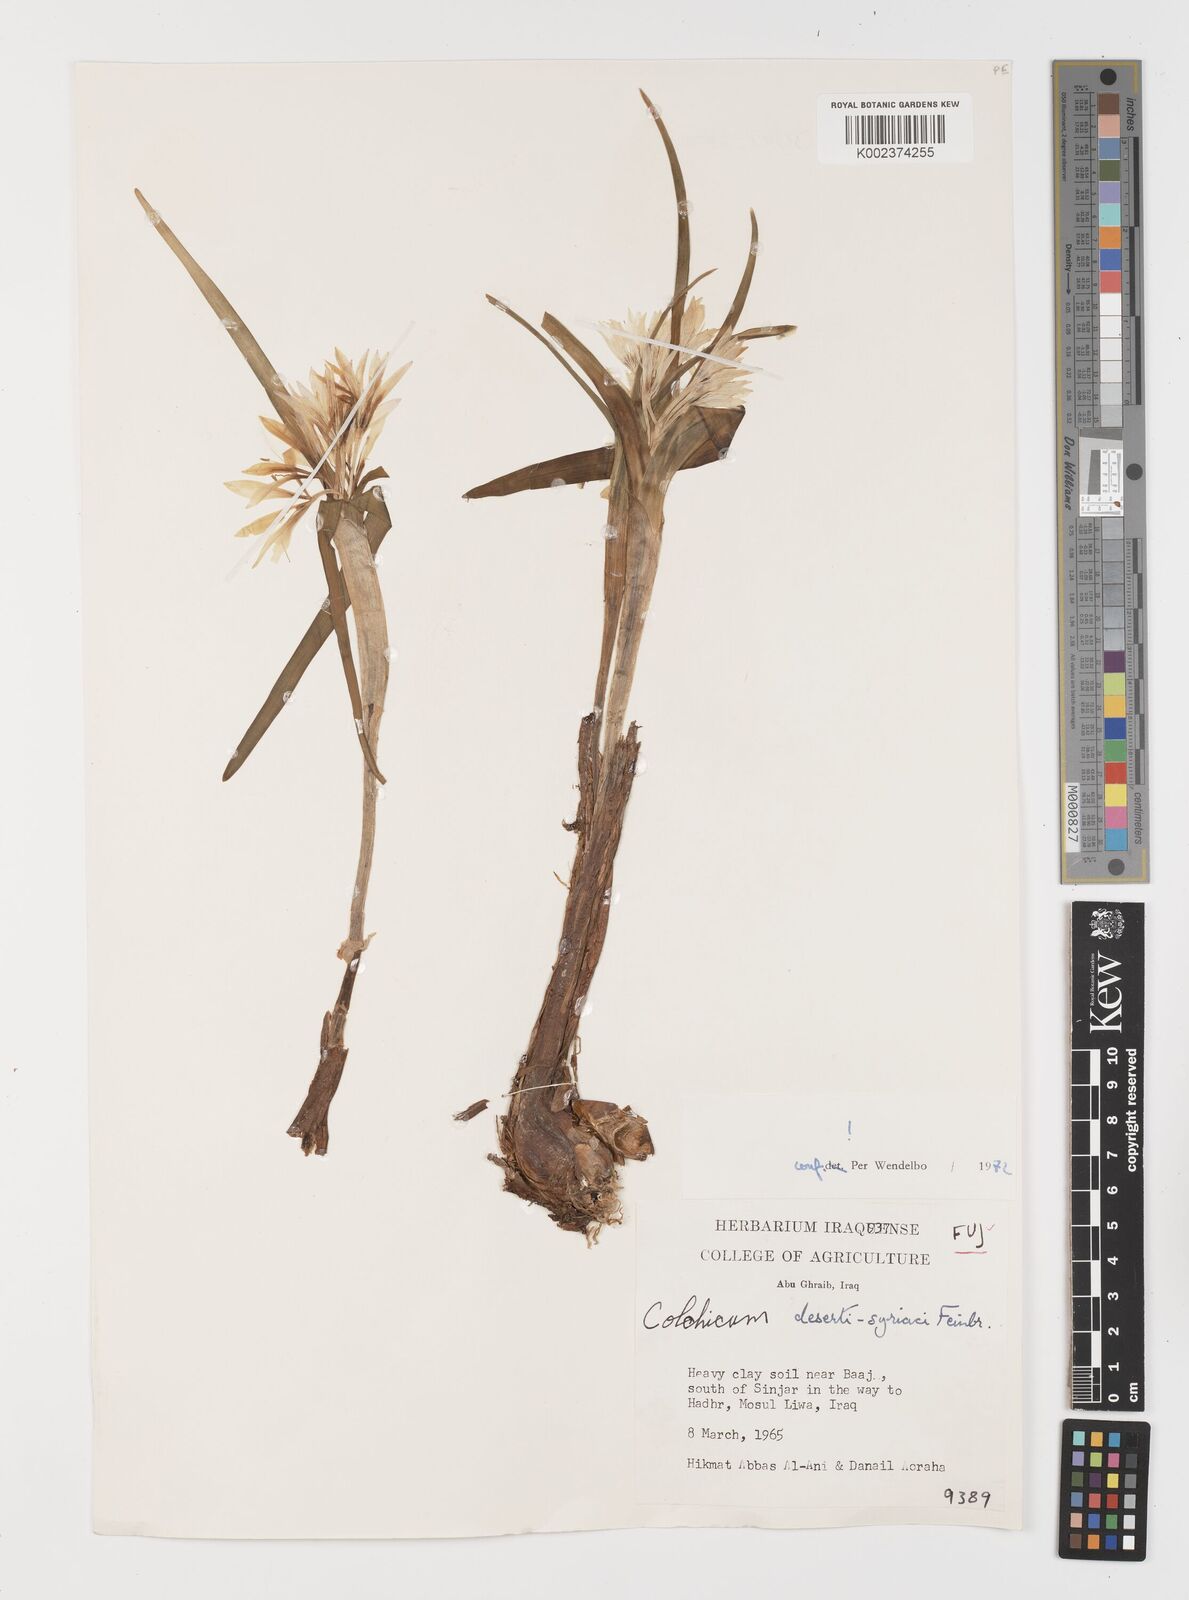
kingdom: Plantae
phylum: Tracheophyta
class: Liliopsida
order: Liliales
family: Colchicaceae
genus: Colchicum
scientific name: Colchicum schimperi
